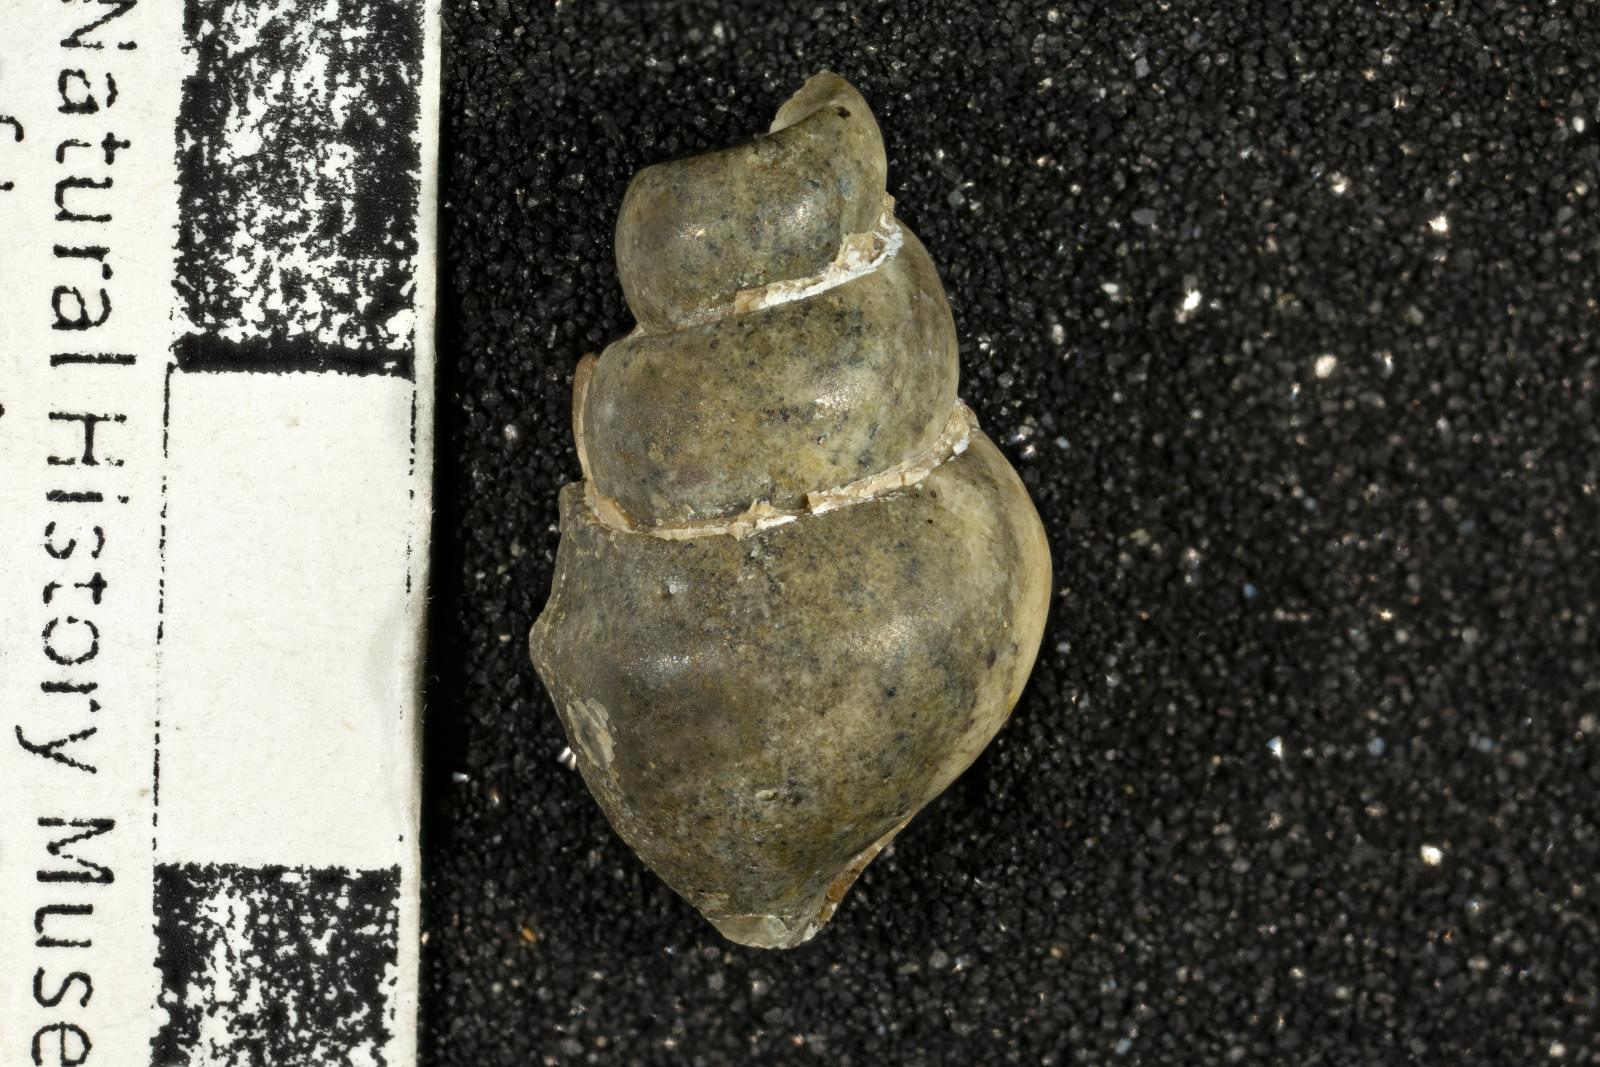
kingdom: Animalia
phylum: Mollusca
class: Gastropoda
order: Littorinimorpha
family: Aporrhaidae
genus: Alarimella
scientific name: Alarimella veta
